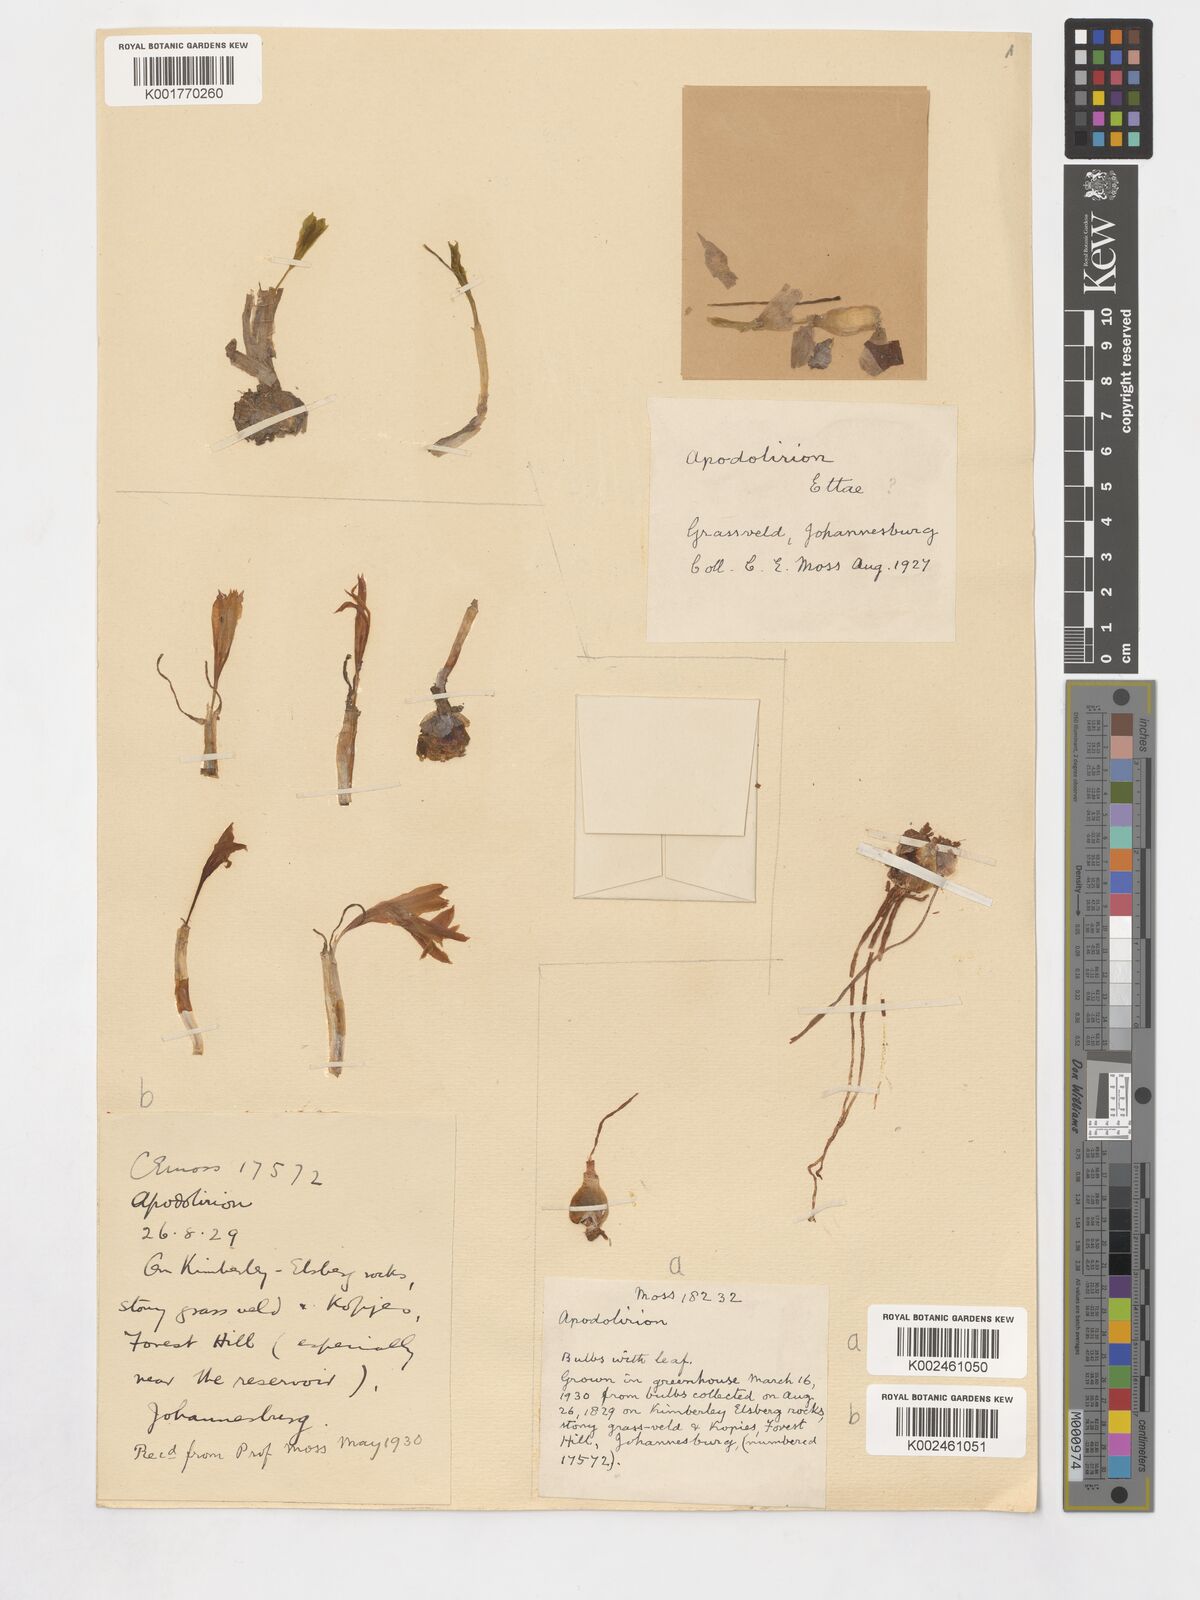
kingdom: Plantae
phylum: Tracheophyta
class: Liliopsida
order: Asparagales
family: Amaryllidaceae
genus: Apodolirion
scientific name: Apodolirion buchananii
